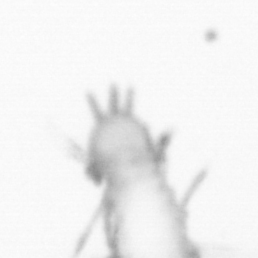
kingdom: Animalia
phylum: Annelida
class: Polychaeta
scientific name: Polychaeta
